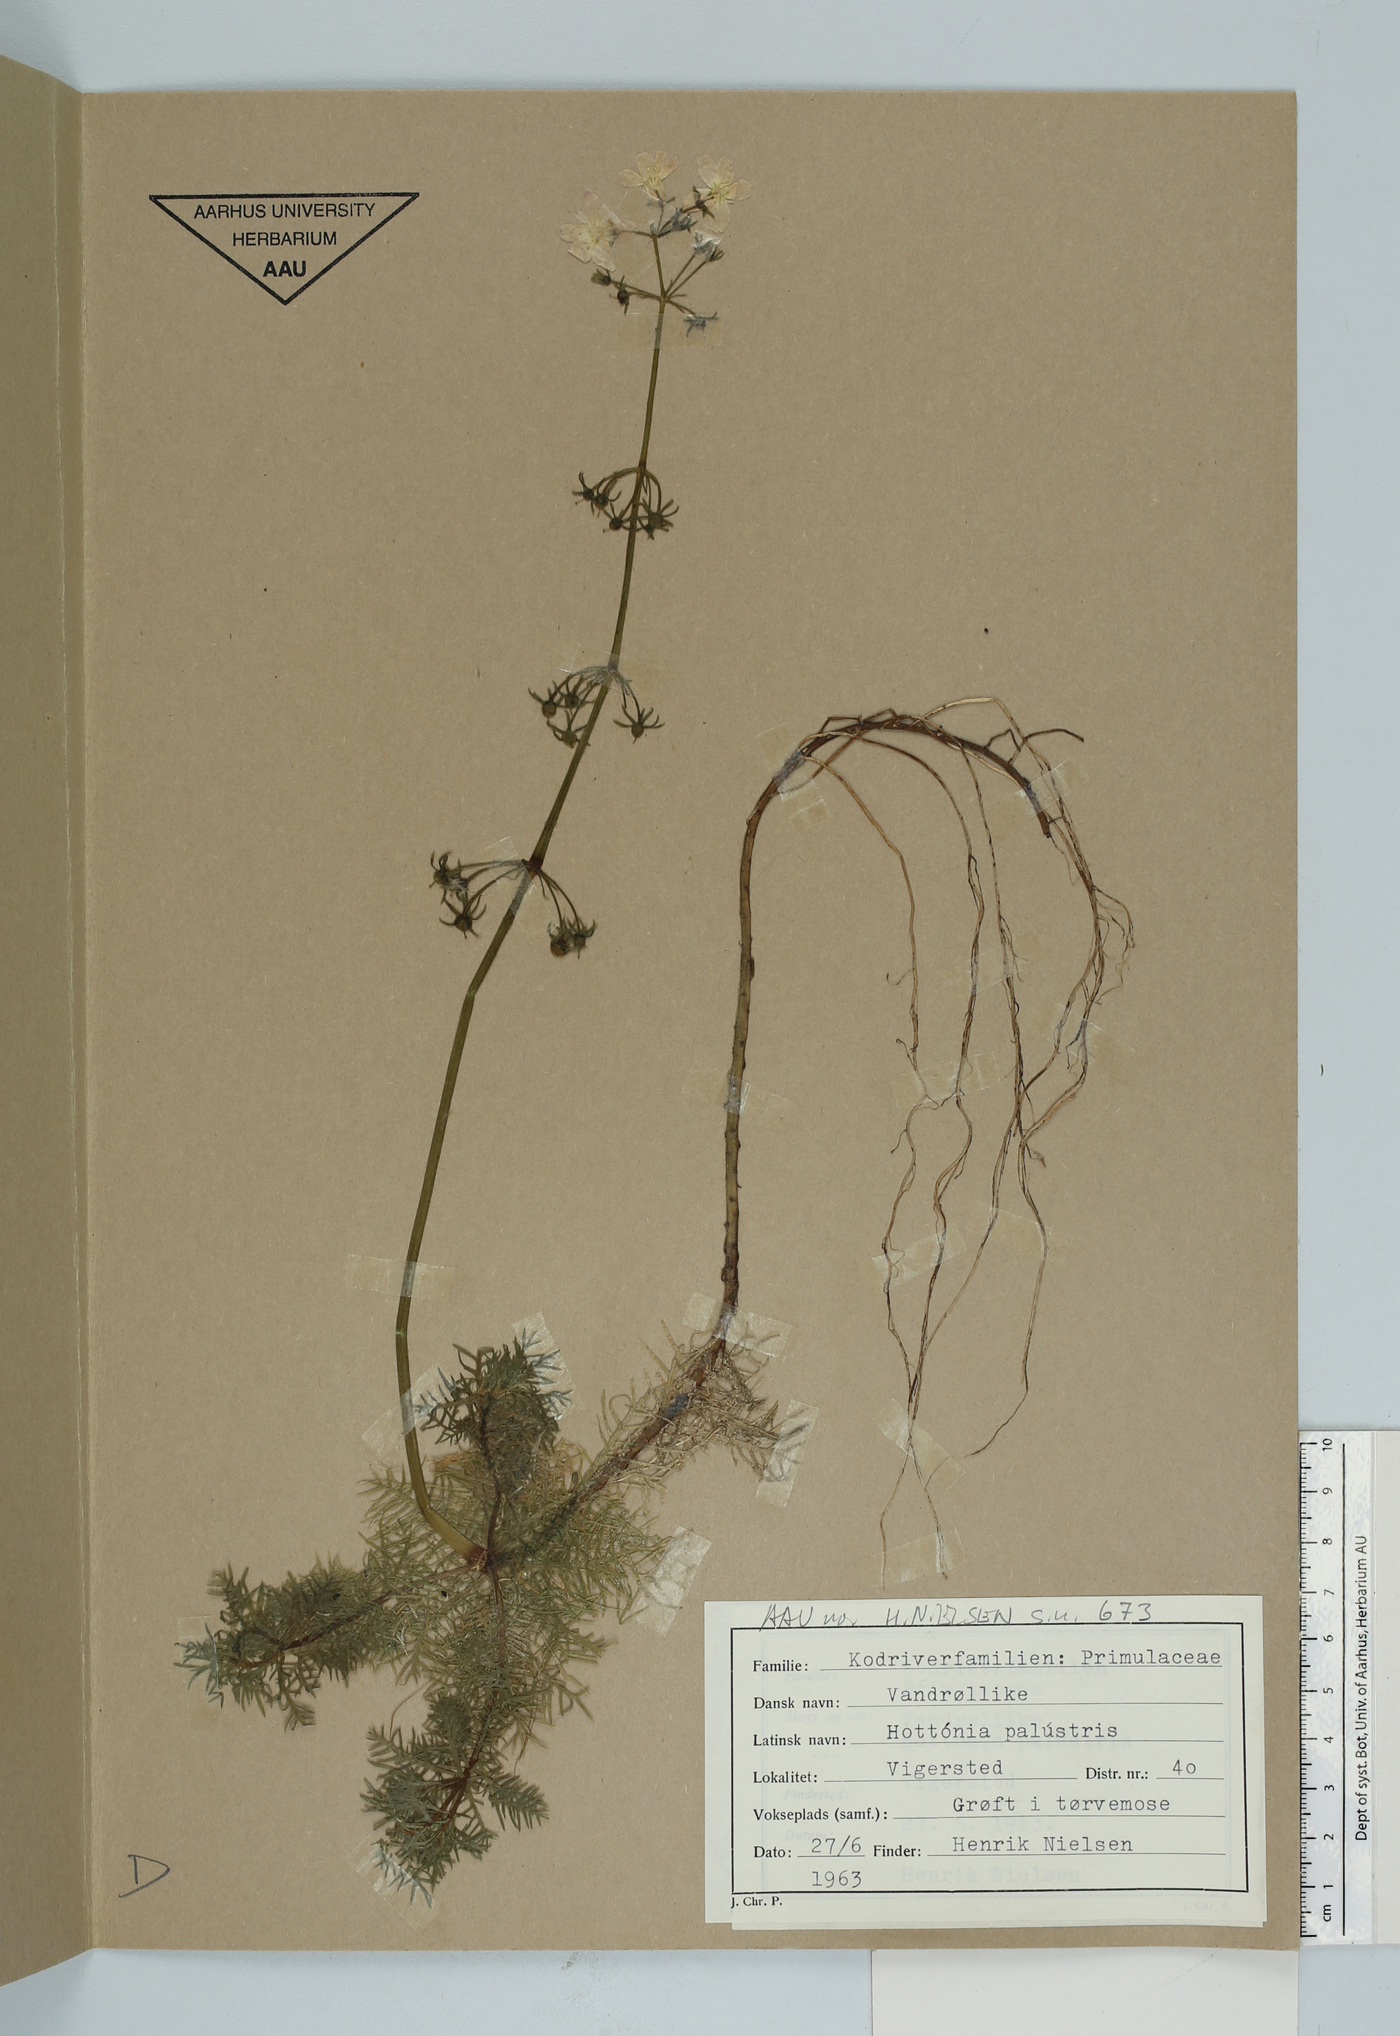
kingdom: Plantae
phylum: Tracheophyta
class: Magnoliopsida
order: Ericales
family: Primulaceae
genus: Hottonia
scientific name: Hottonia palustris
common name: Water-violet
